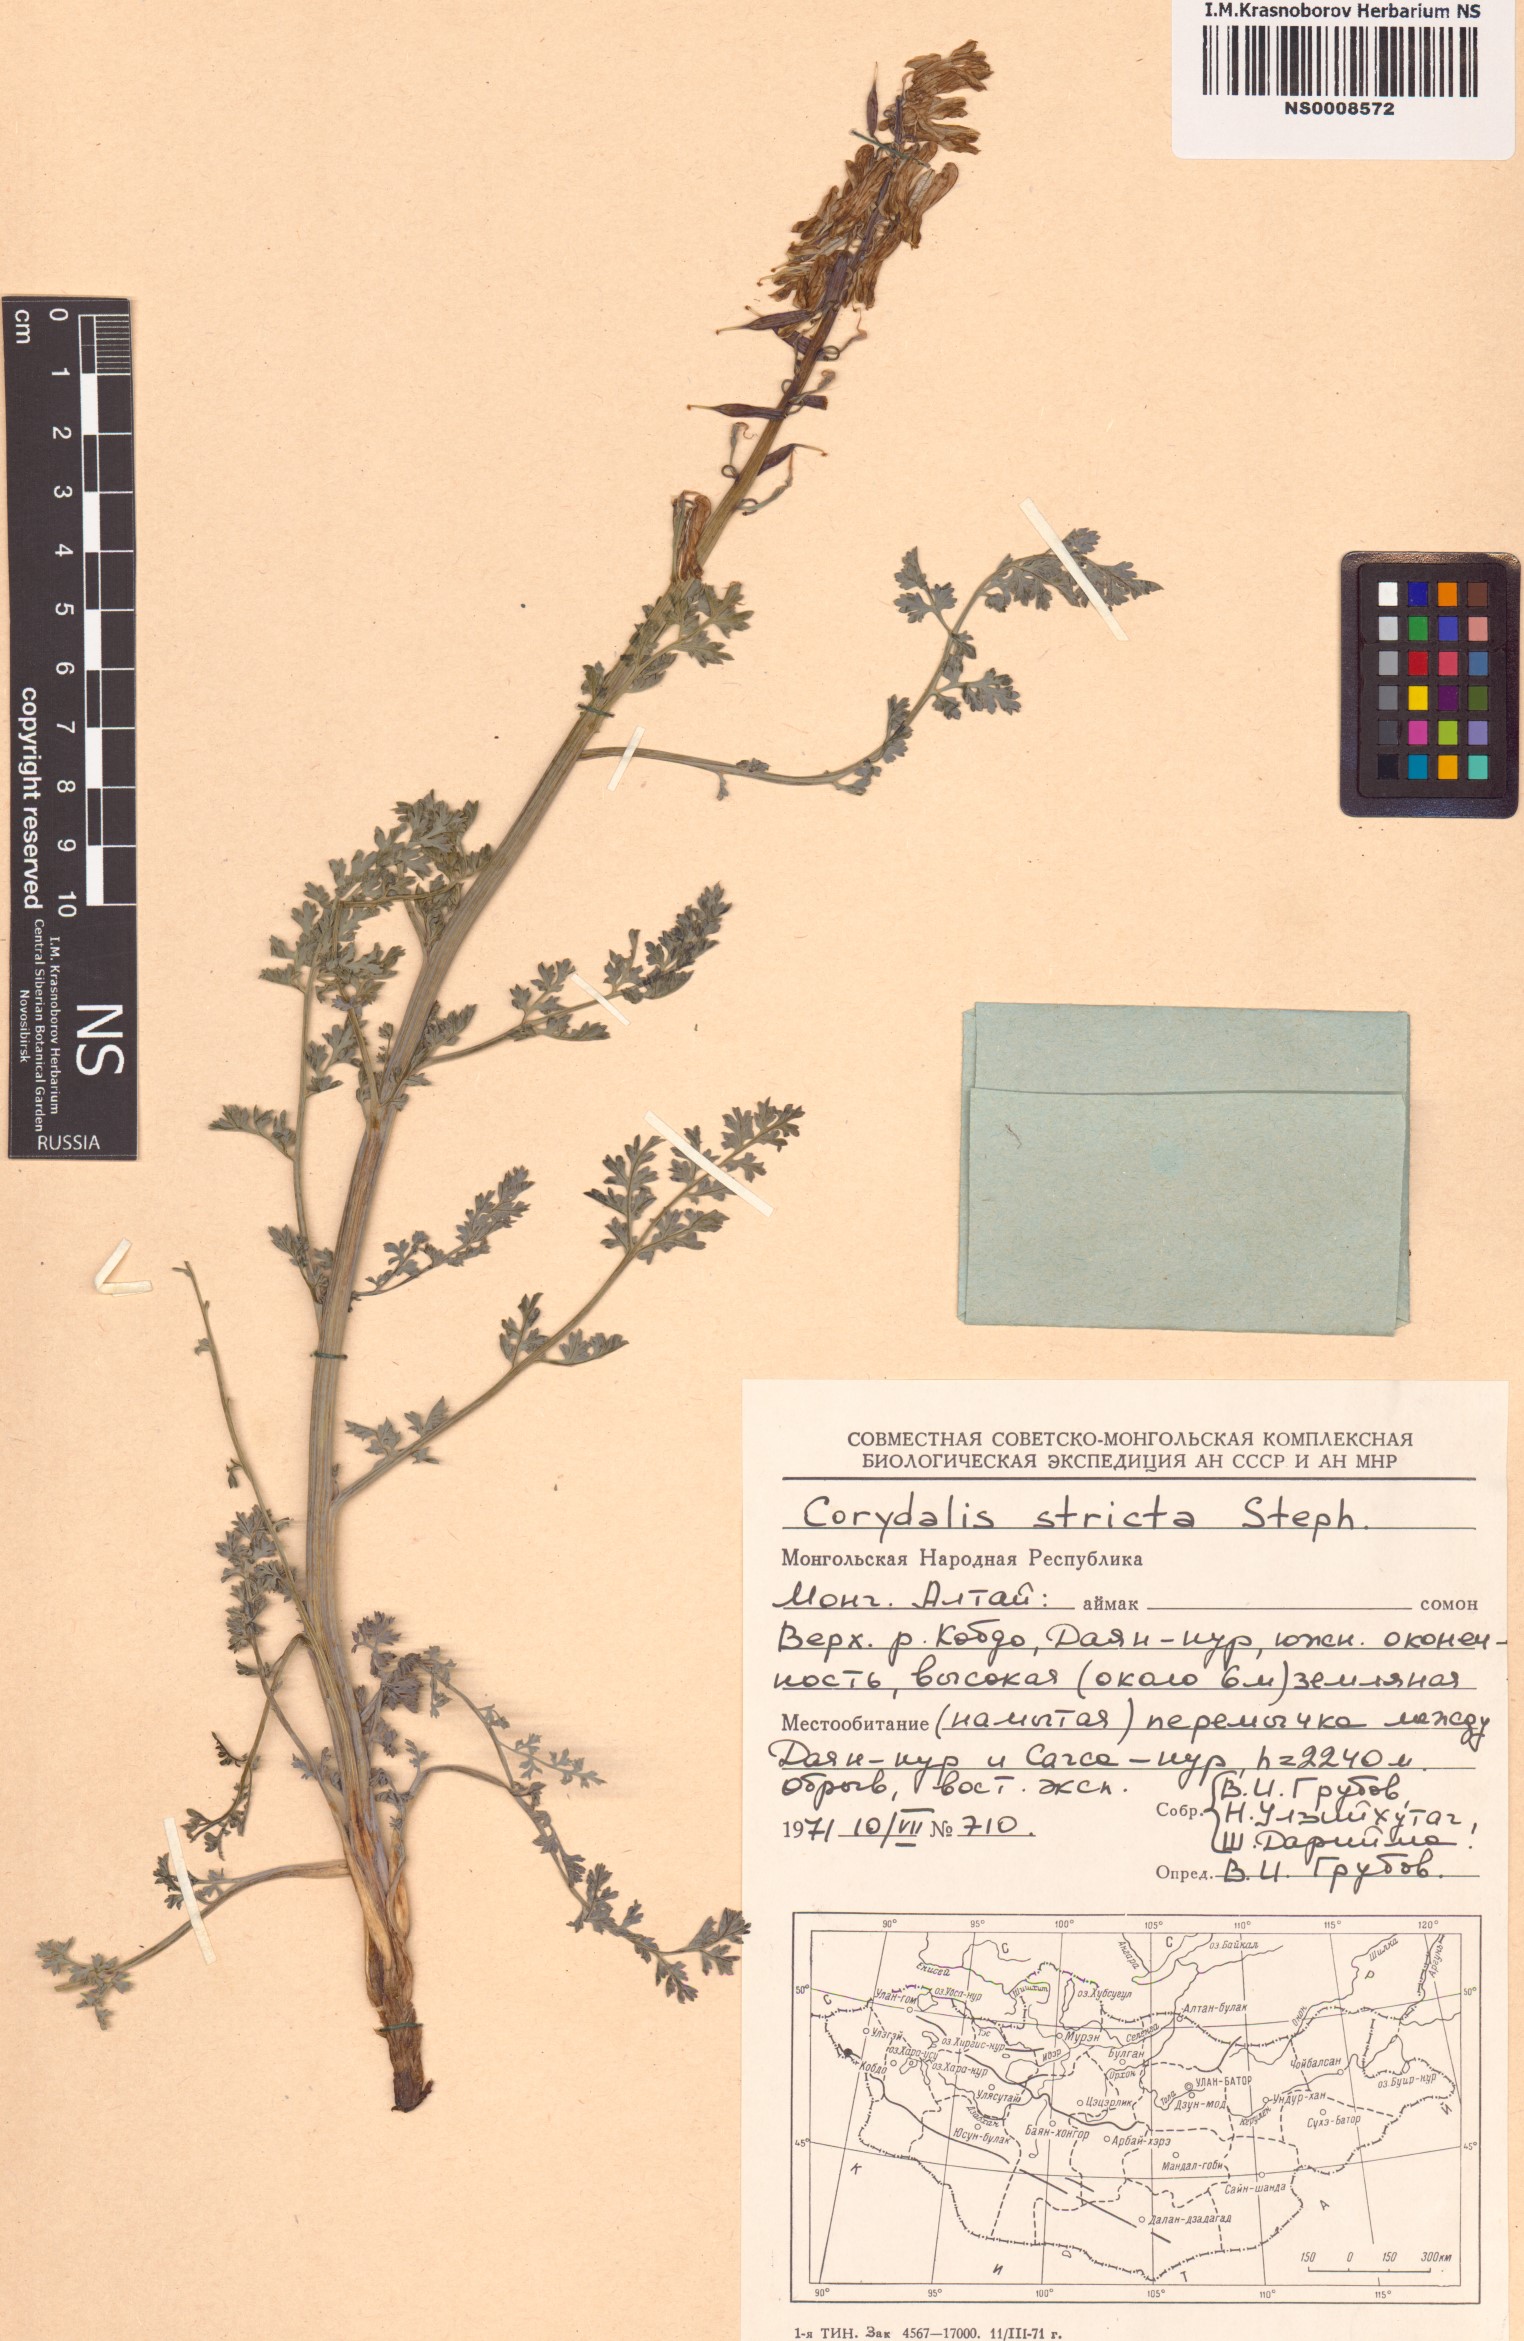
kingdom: Plantae
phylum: Tracheophyta
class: Magnoliopsida
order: Ranunculales
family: Papaveraceae
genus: Corydalis
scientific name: Corydalis stricta
